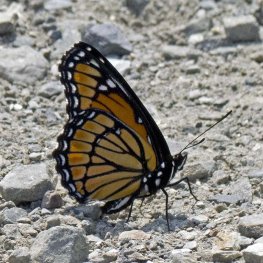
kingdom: Animalia
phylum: Arthropoda
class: Insecta
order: Lepidoptera
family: Nymphalidae
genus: Limenitis
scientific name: Limenitis archippus
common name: Viceroy
